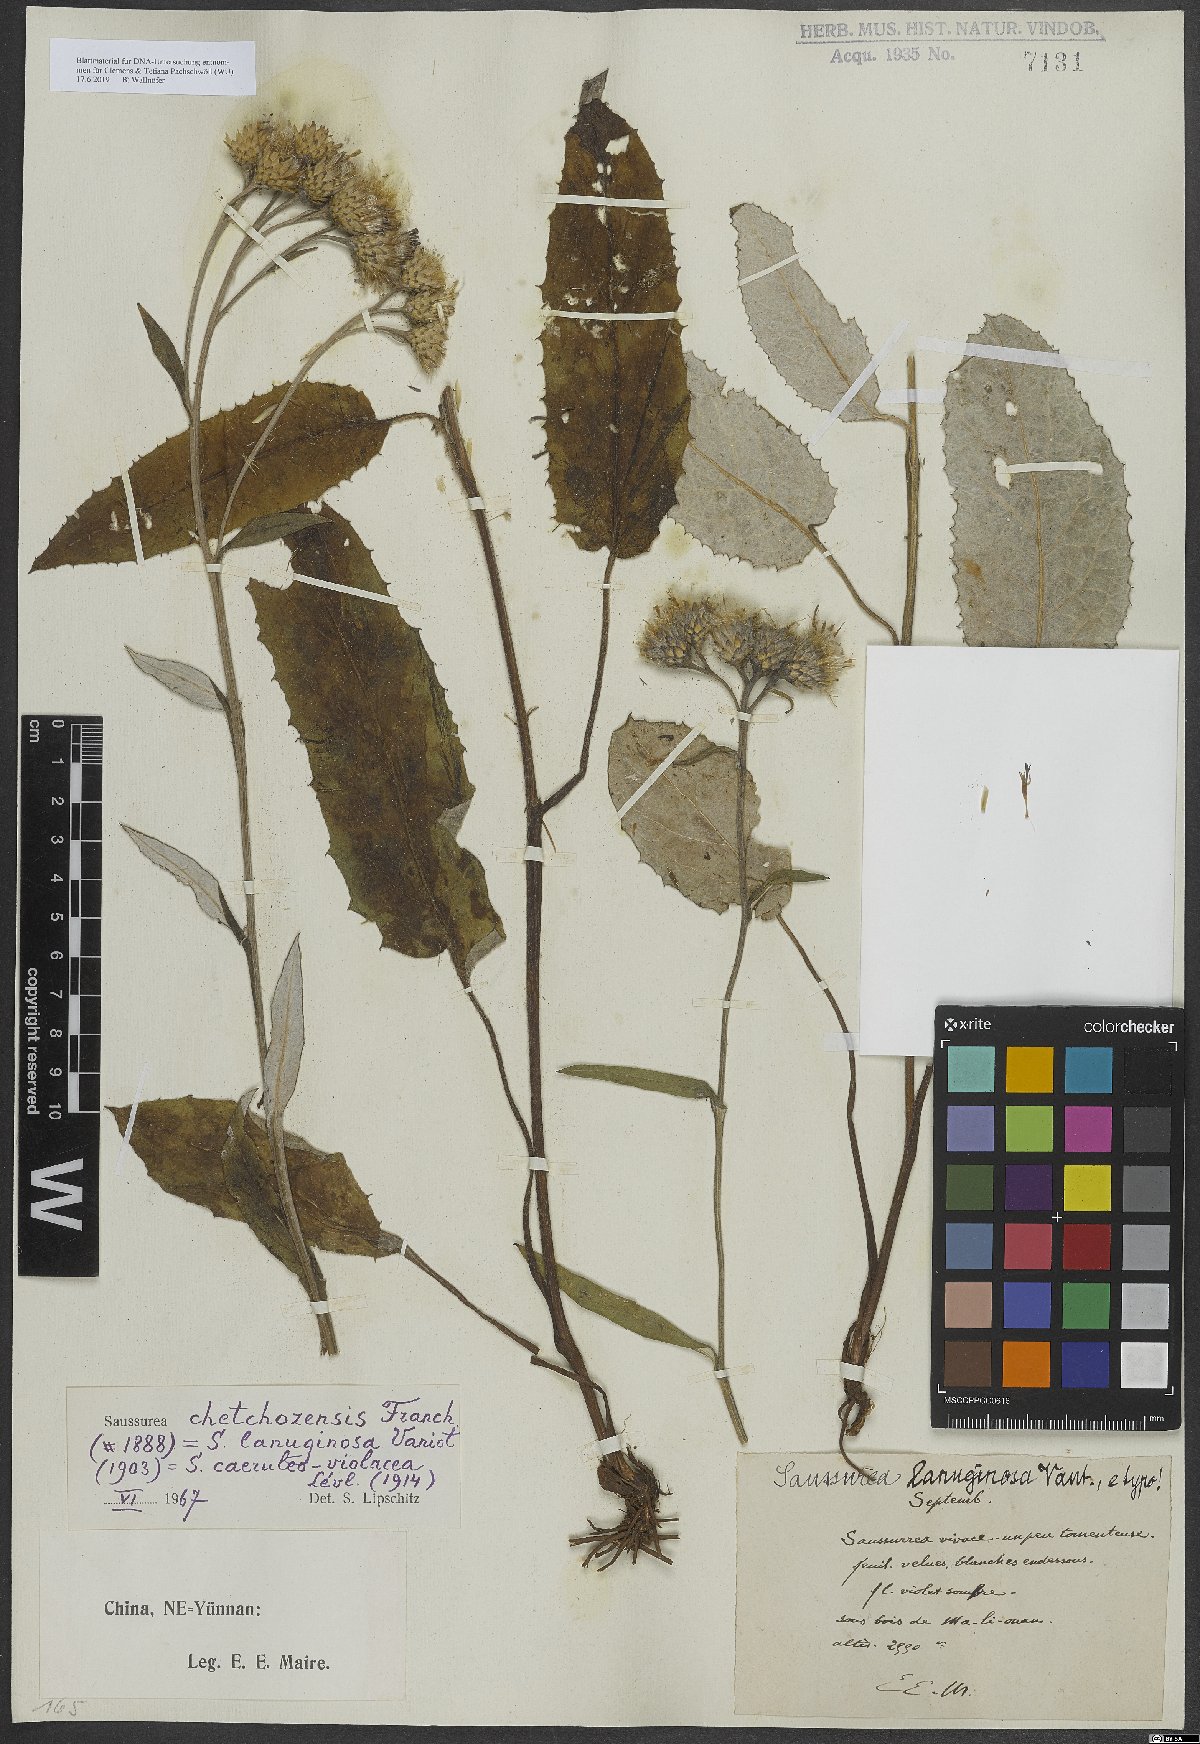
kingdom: Plantae
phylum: Tracheophyta
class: Magnoliopsida
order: Asterales
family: Asteraceae
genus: Saussurea
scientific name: Saussurea chetchozensis
